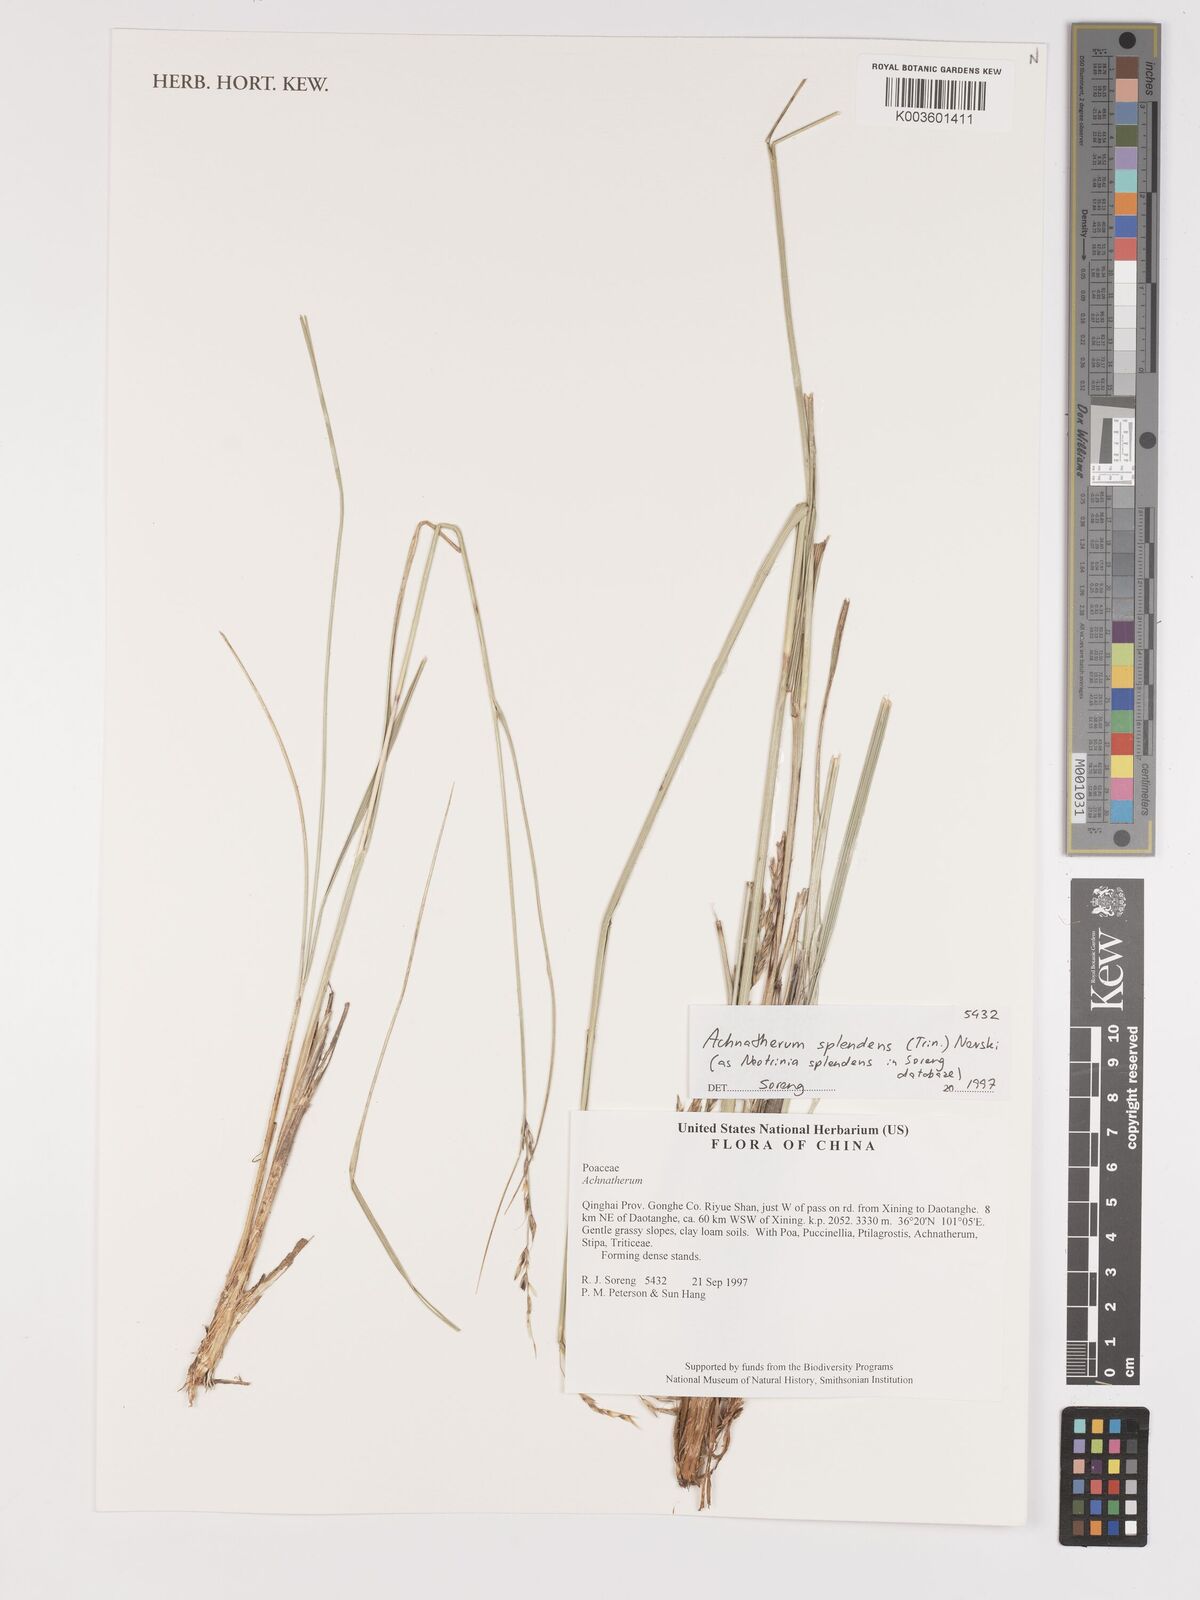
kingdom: Plantae
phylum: Tracheophyta
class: Liliopsida
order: Poales
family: Poaceae
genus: Neotrinia
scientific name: Neotrinia splendens
